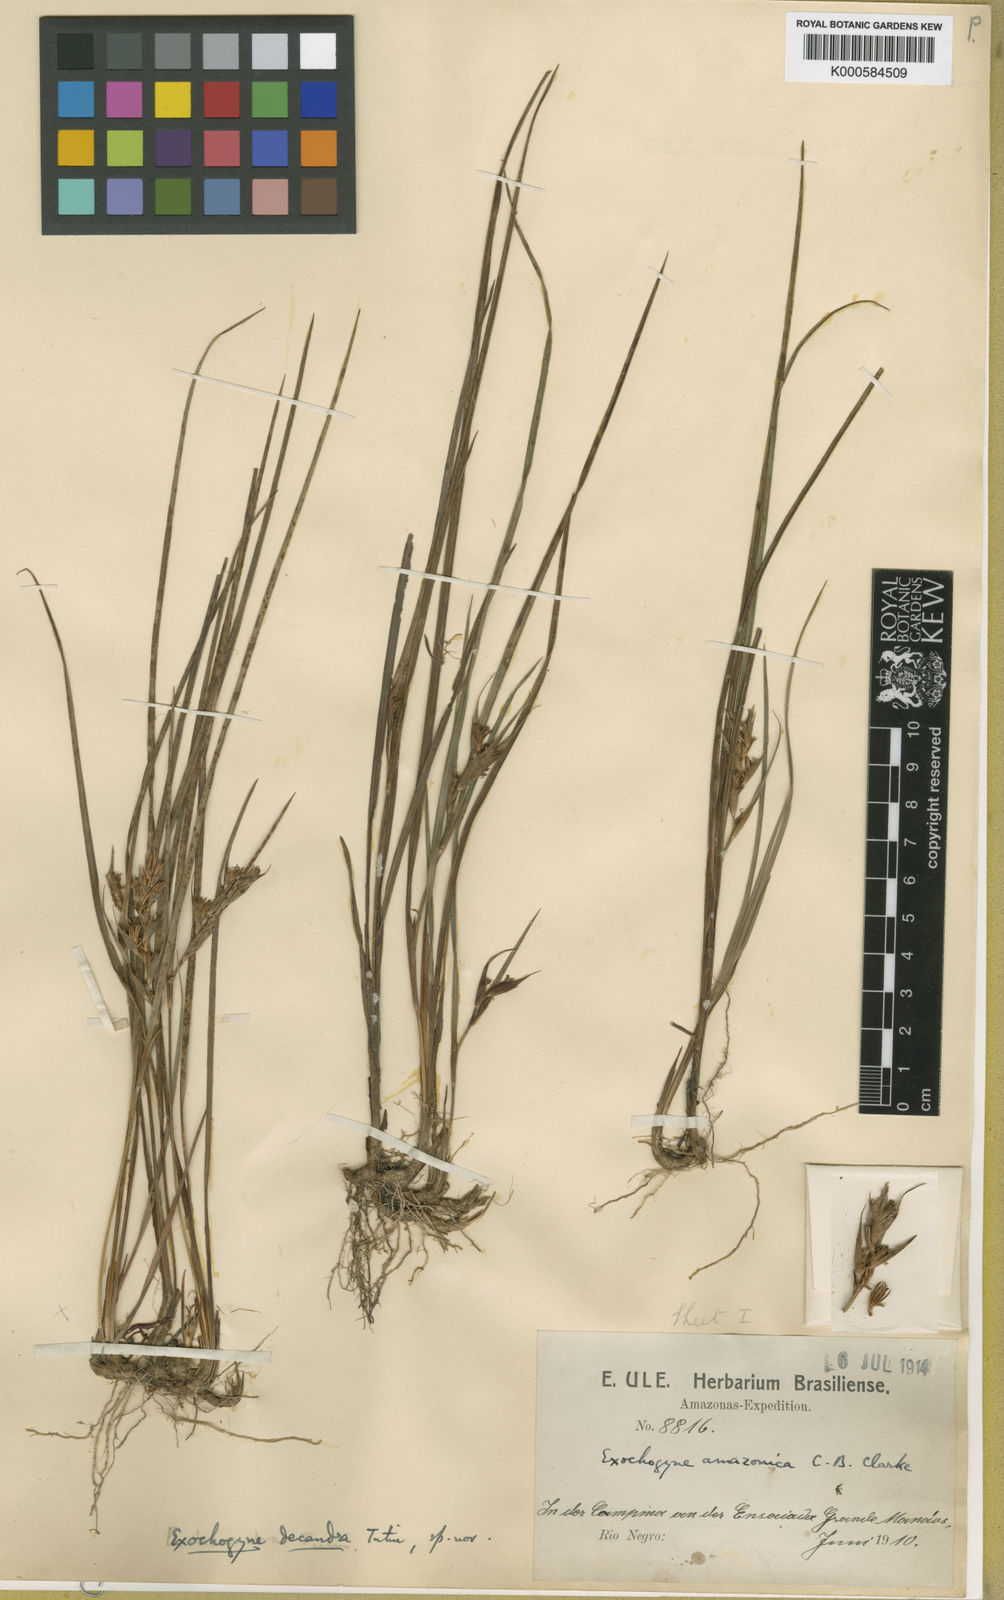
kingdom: Plantae
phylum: Tracheophyta
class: Liliopsida
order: Poales
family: Cyperaceae
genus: Exochogyne
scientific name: Exochogyne amazonica
